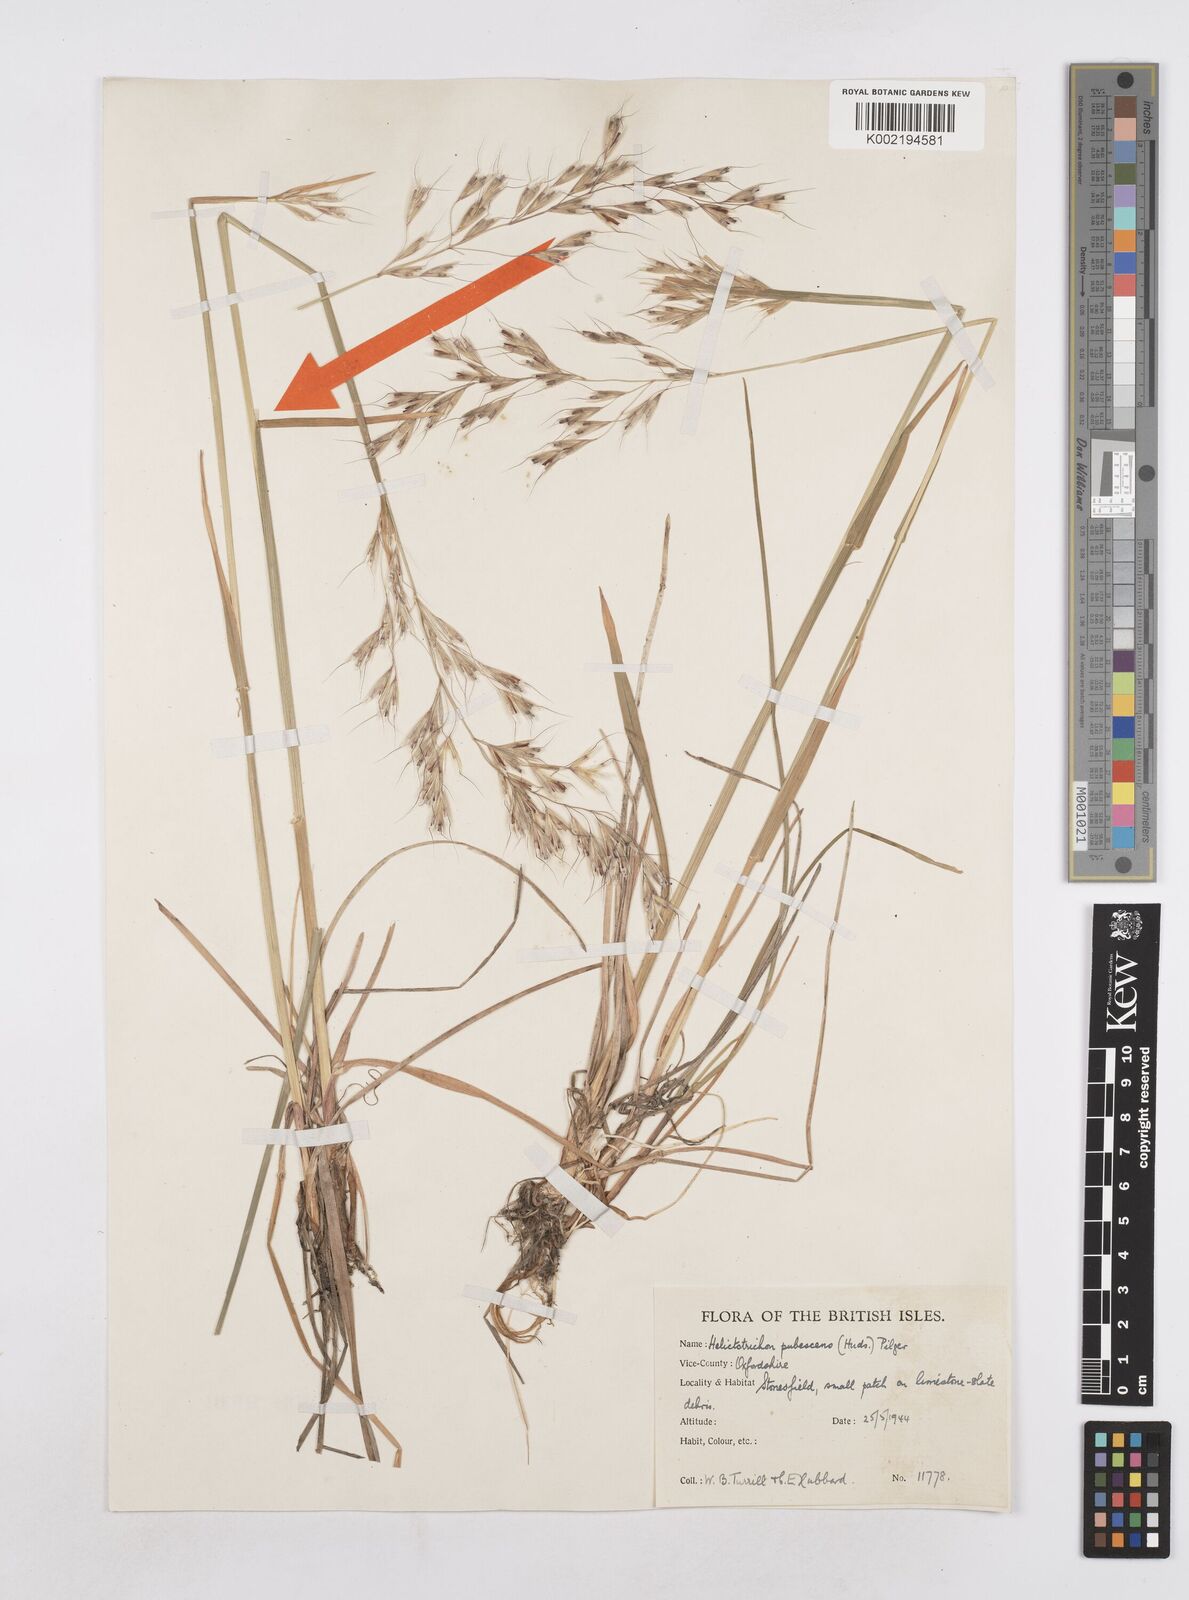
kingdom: Plantae
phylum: Tracheophyta
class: Liliopsida
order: Poales
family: Poaceae
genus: Avenula
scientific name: Avenula pubescens
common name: Downy alpine oatgrass
